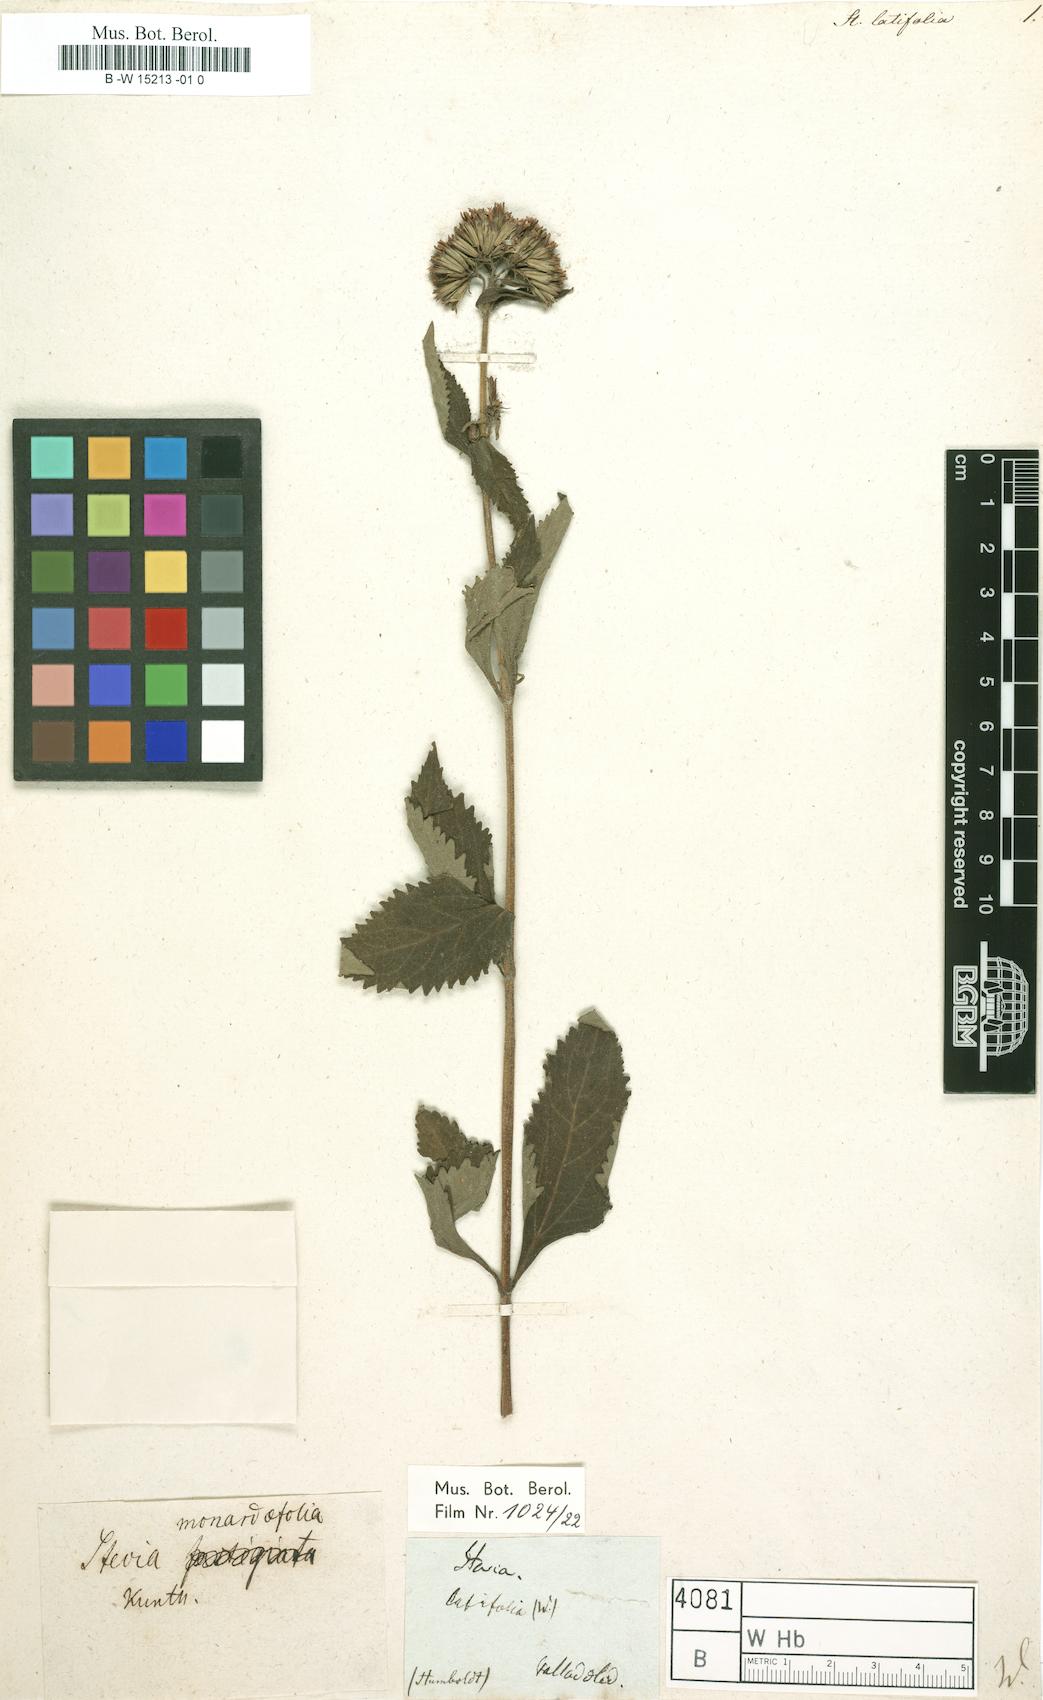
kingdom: Plantae
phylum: Tracheophyta
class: Magnoliopsida
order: Asterales
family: Asteraceae
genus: Stevia
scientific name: Stevia latifolia
